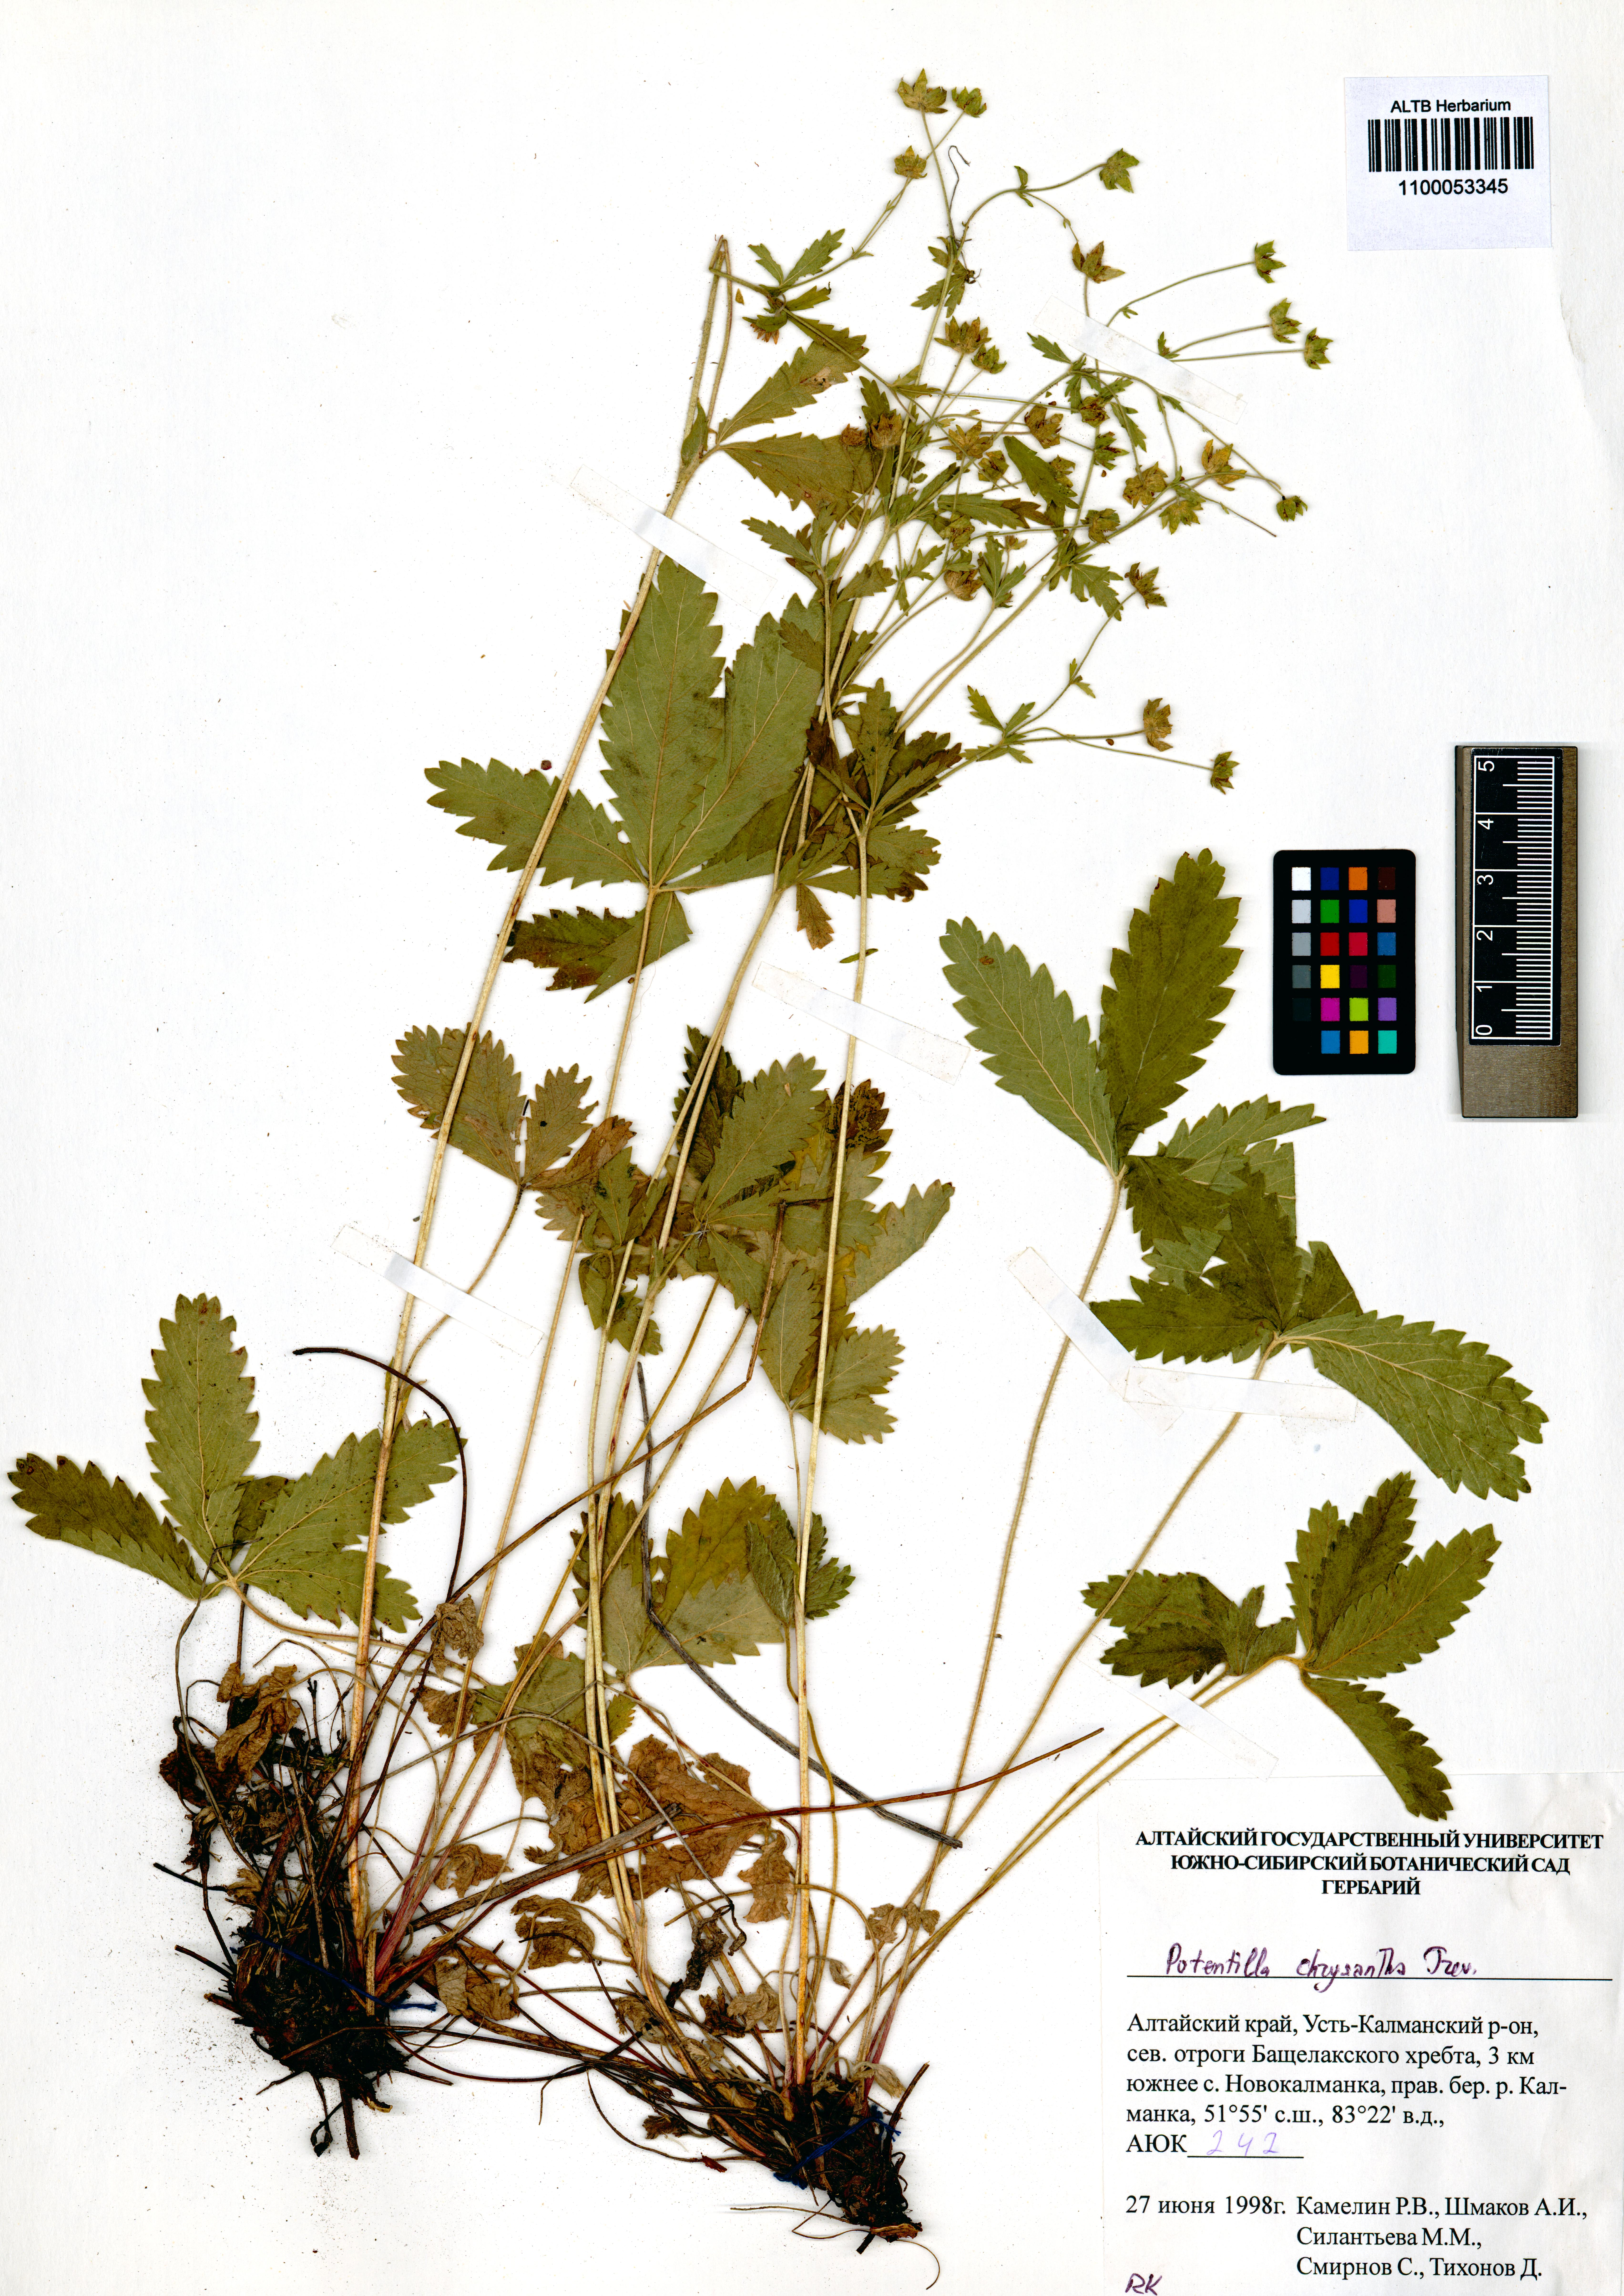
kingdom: Plantae
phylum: Tracheophyta
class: Magnoliopsida
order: Rosales
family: Rosaceae
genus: Potentilla
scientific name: Potentilla chrysantha
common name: Thuringian cinquefoil
